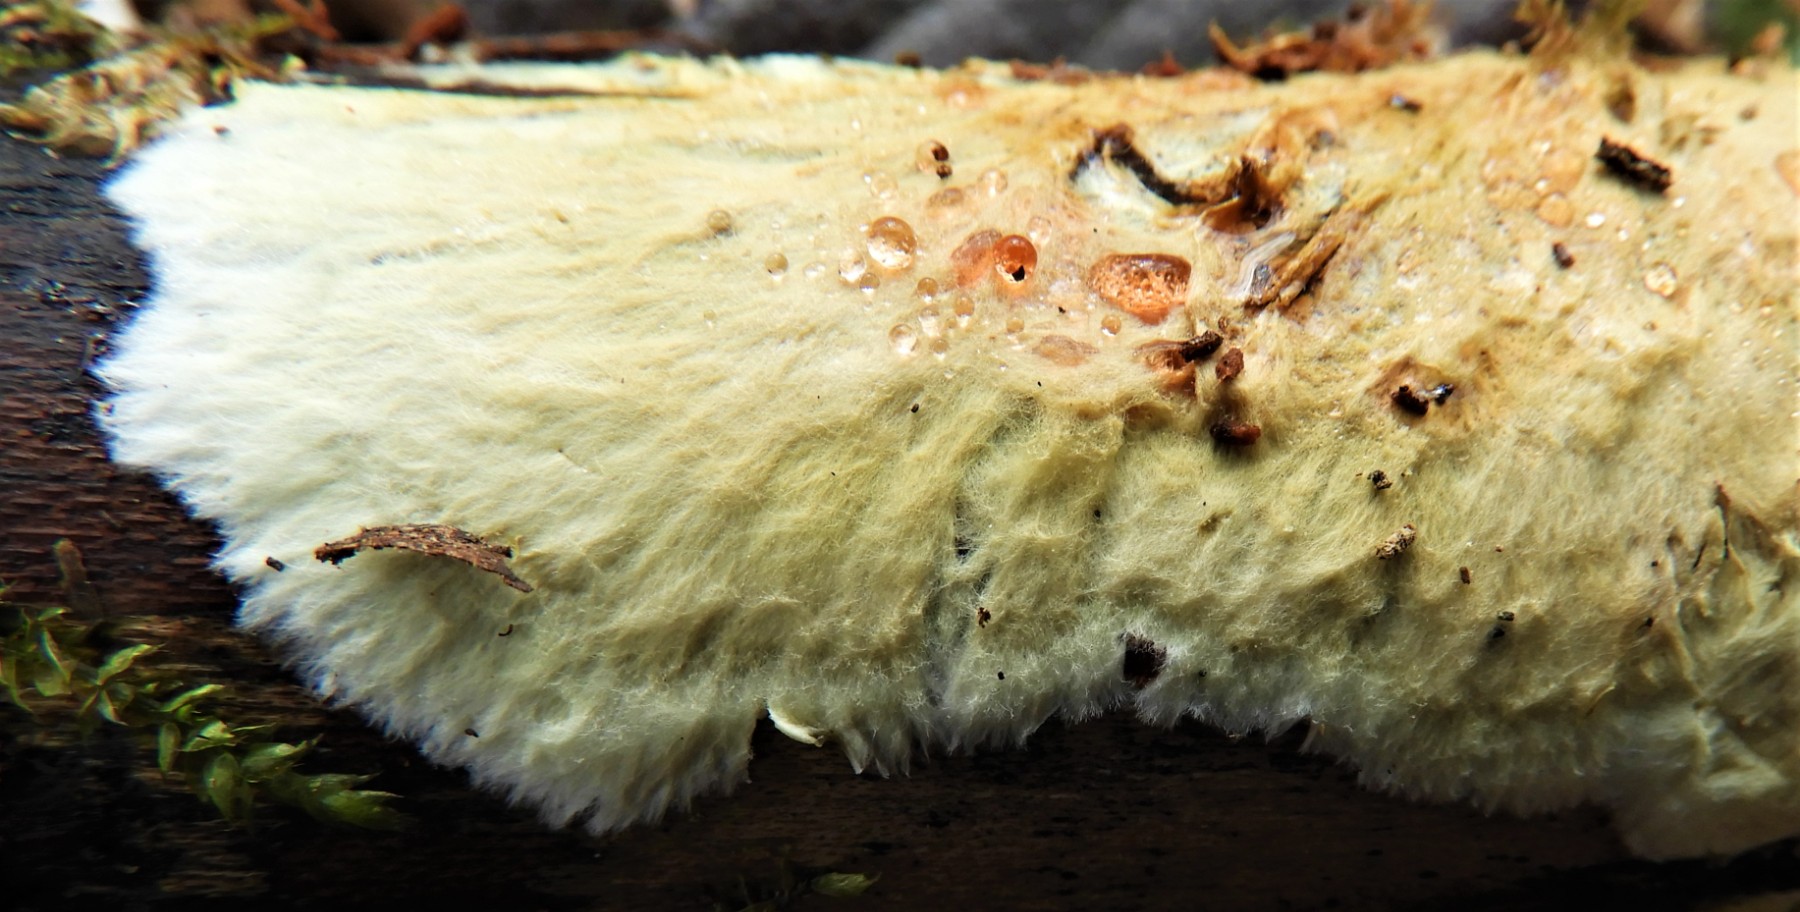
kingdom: Fungi
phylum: Basidiomycota
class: Agaricomycetes
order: Russulales
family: Xenasmataceae
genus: Xenasmatella
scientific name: Xenasmatella vaga
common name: svovl-strenghinde
